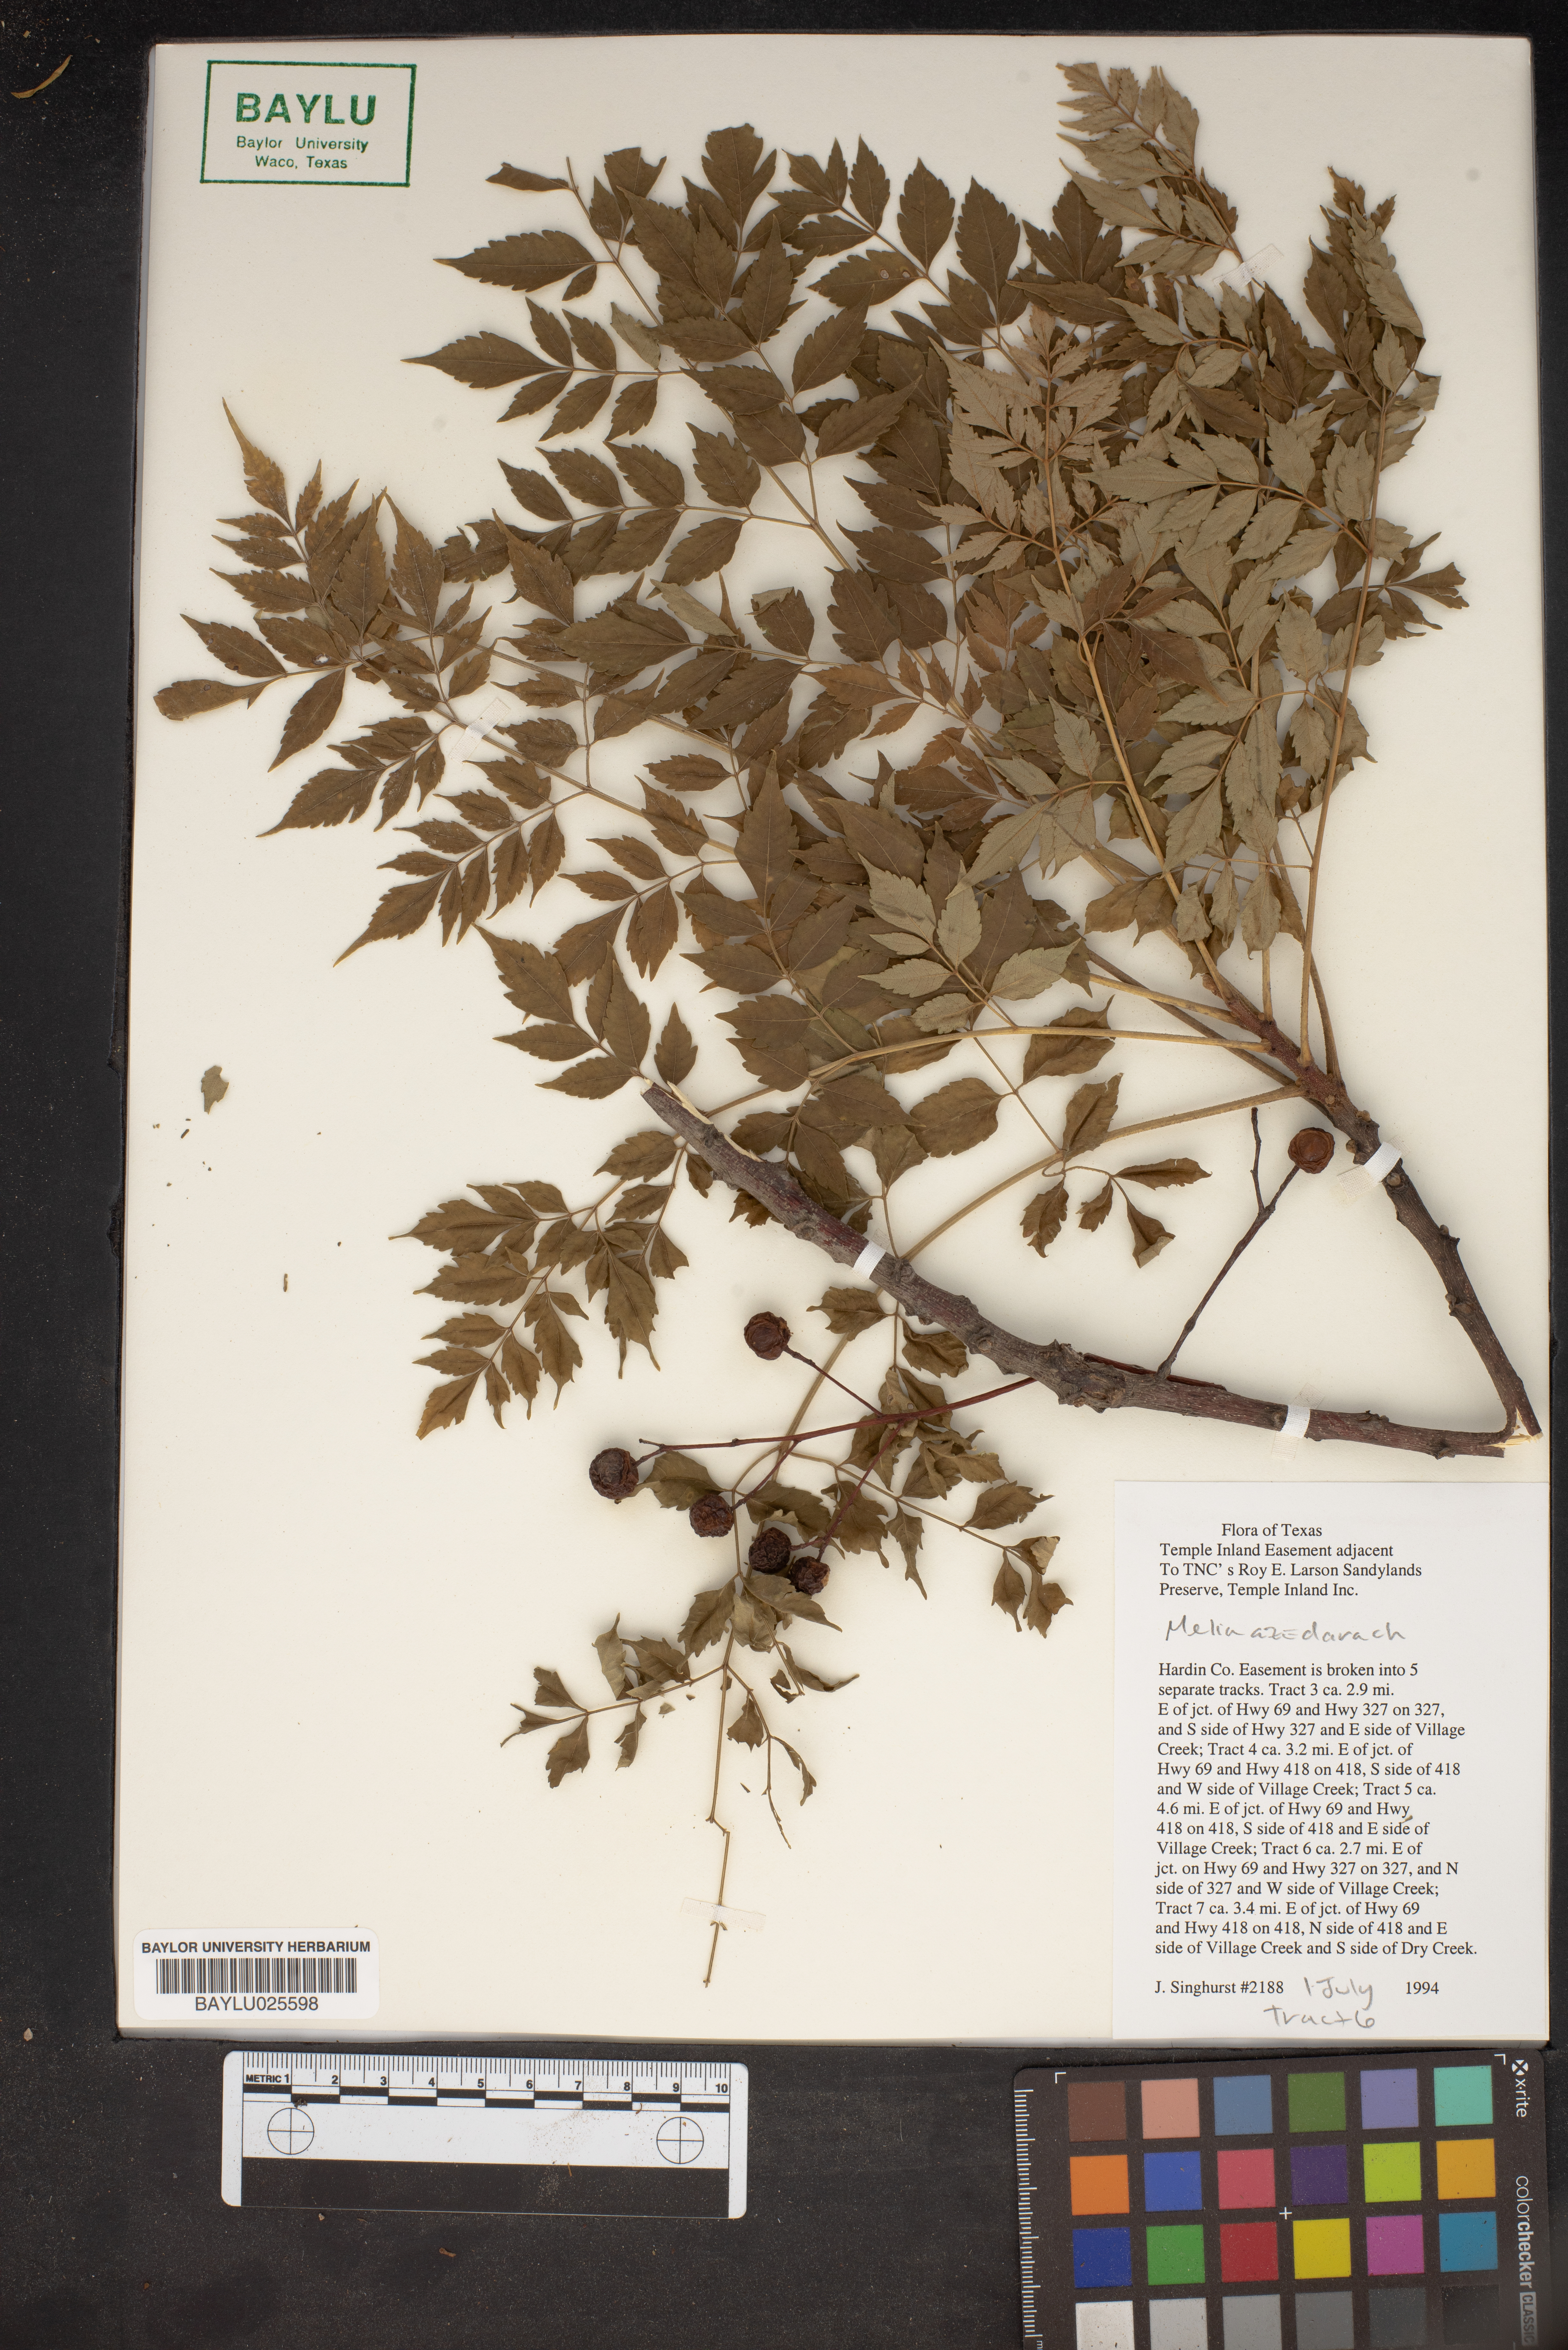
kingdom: Plantae
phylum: Tracheophyta
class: Magnoliopsida
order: Sapindales
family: Meliaceae
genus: Melia
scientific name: Melia azedarach
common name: Chinaberrytree
